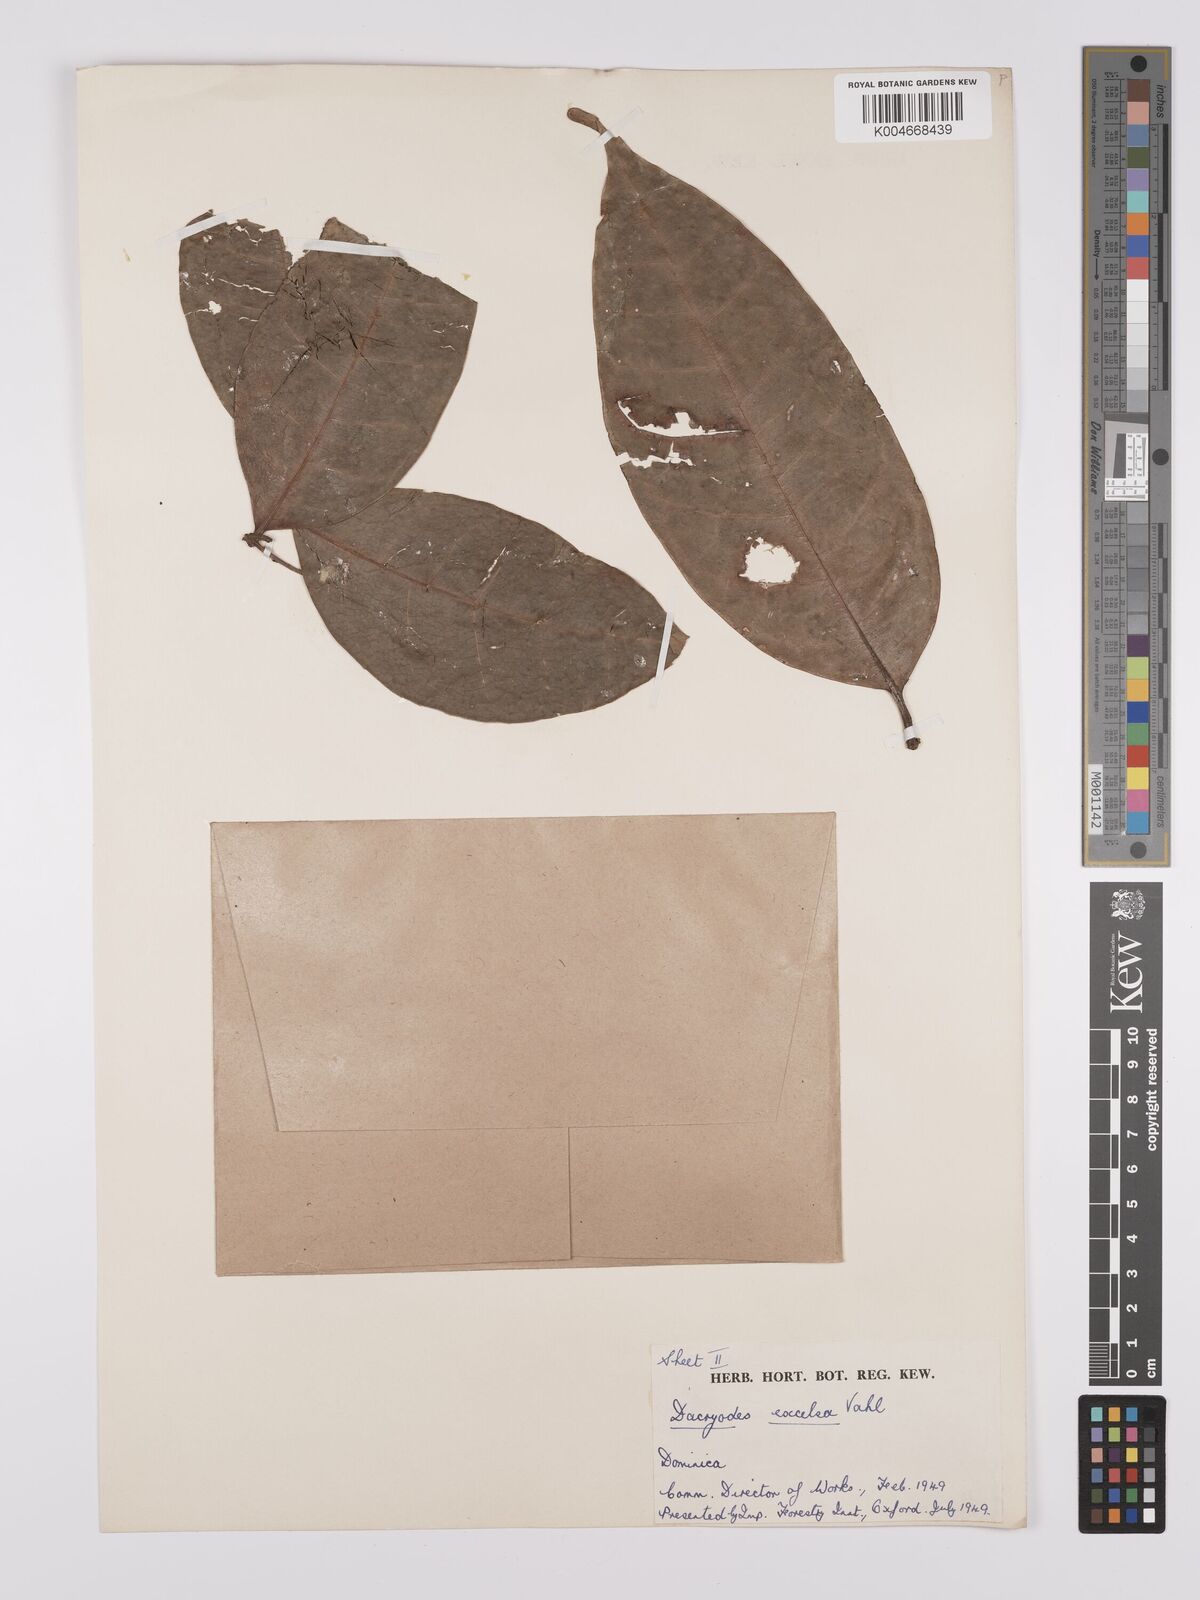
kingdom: Plantae
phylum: Tracheophyta
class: Magnoliopsida
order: Sapindales
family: Burseraceae
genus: Dacryodes
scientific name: Dacryodes excelsa
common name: Candlewood
